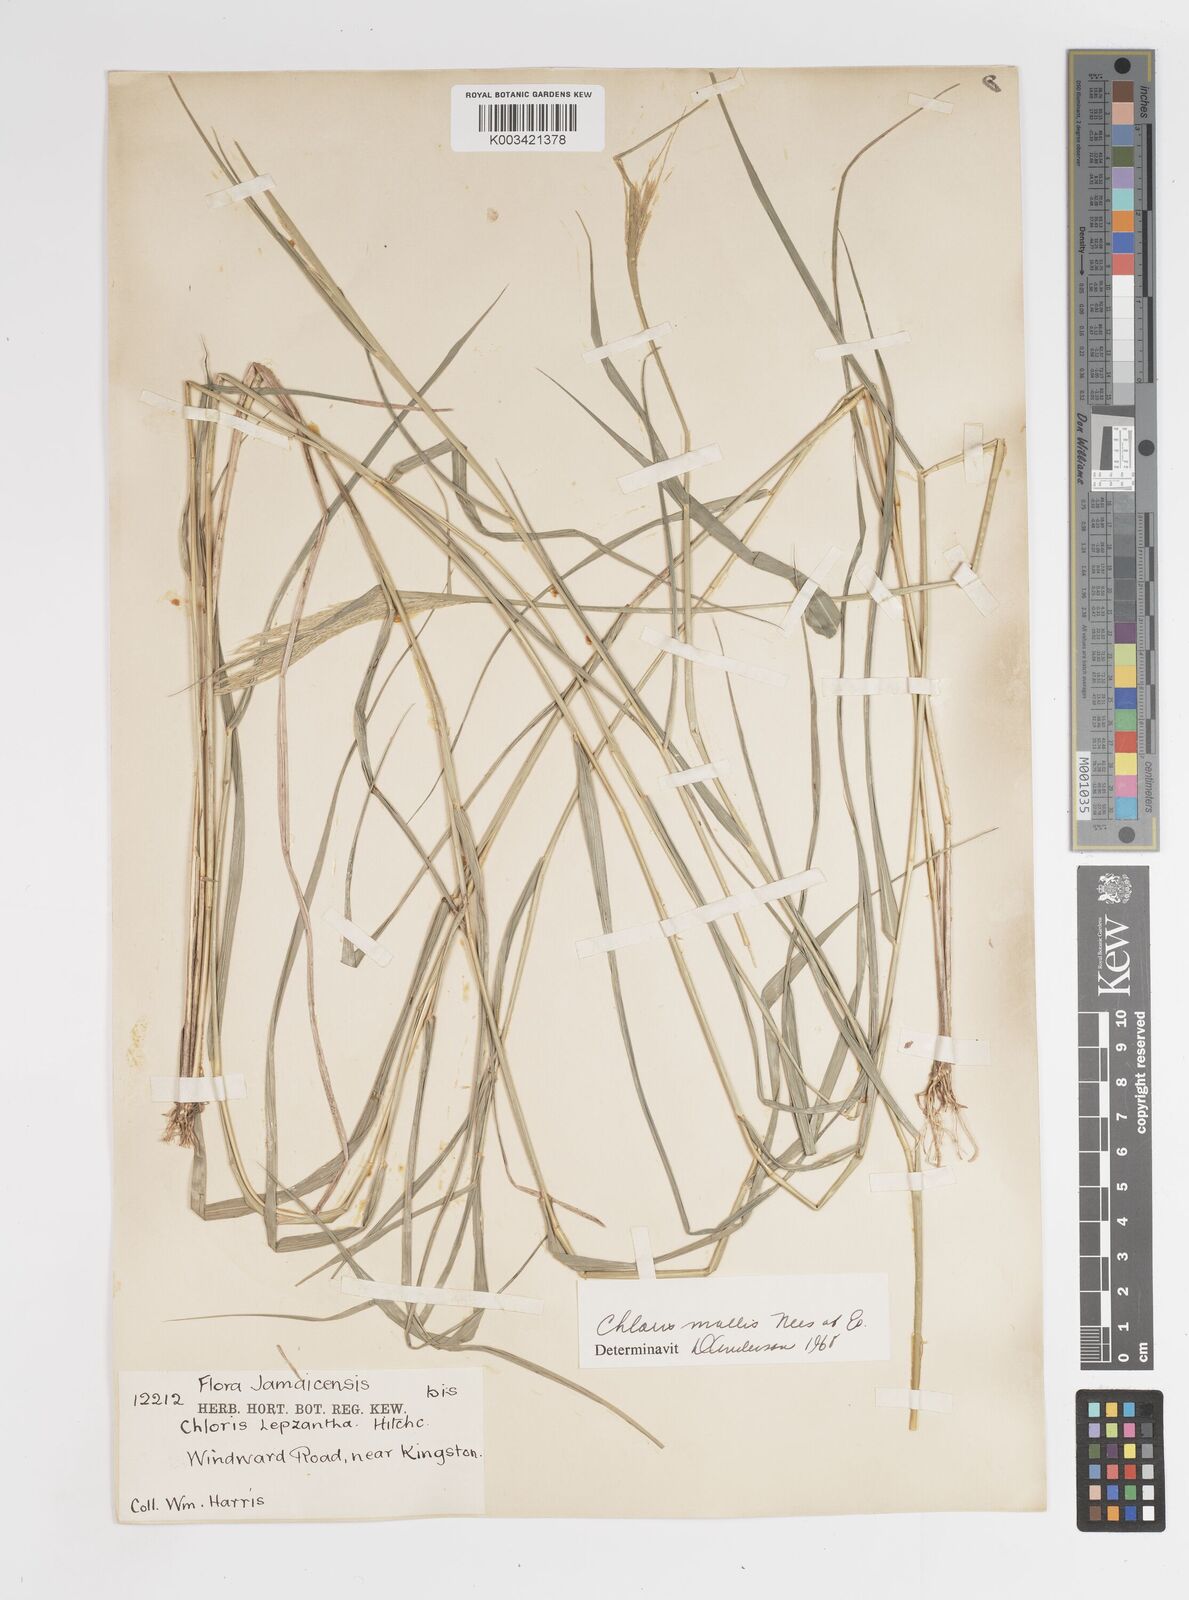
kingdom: Plantae
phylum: Tracheophyta
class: Liliopsida
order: Poales
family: Poaceae
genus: Leptochloa
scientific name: Leptochloa anisopoda
